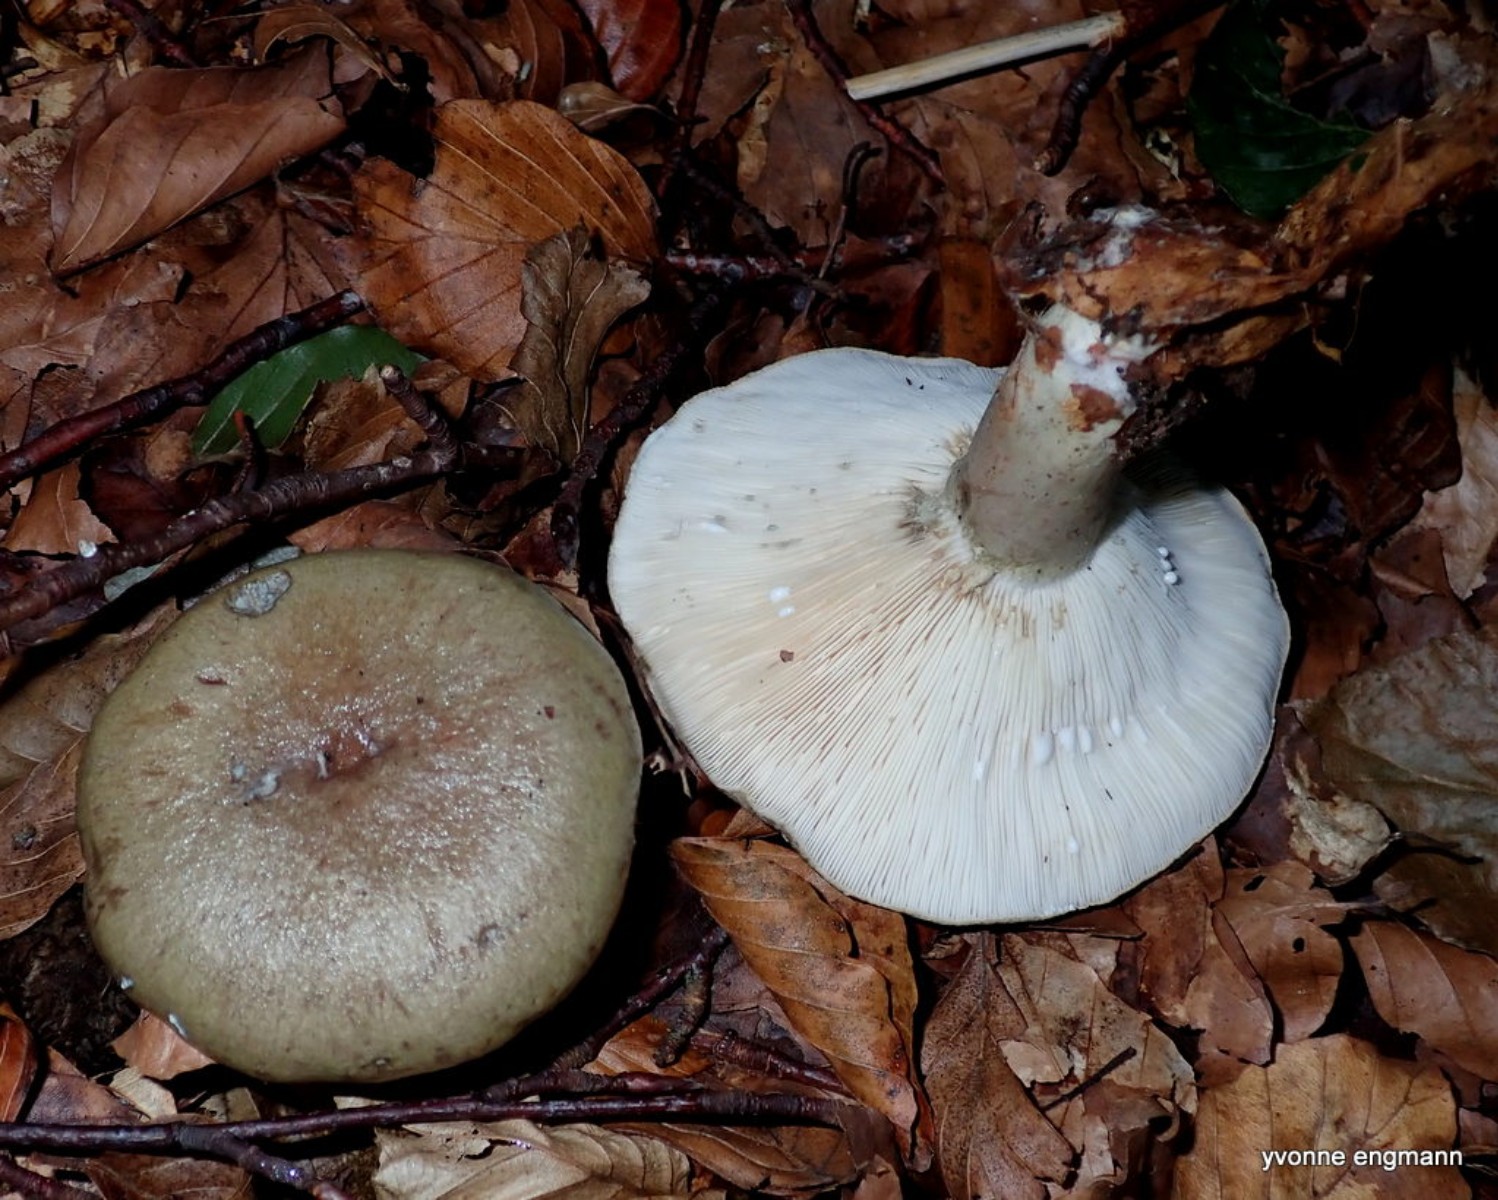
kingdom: Fungi
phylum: Basidiomycota
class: Agaricomycetes
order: Russulales
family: Russulaceae
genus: Lactarius
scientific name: Lactarius blennius
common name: dråbeplettet mælkehat
